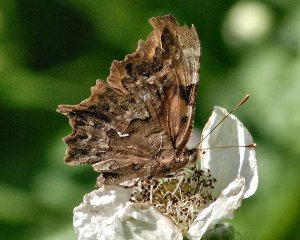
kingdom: Animalia
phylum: Arthropoda
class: Insecta
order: Lepidoptera
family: Nymphalidae
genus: Polygonia
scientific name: Polygonia faunus
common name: Green Comma
